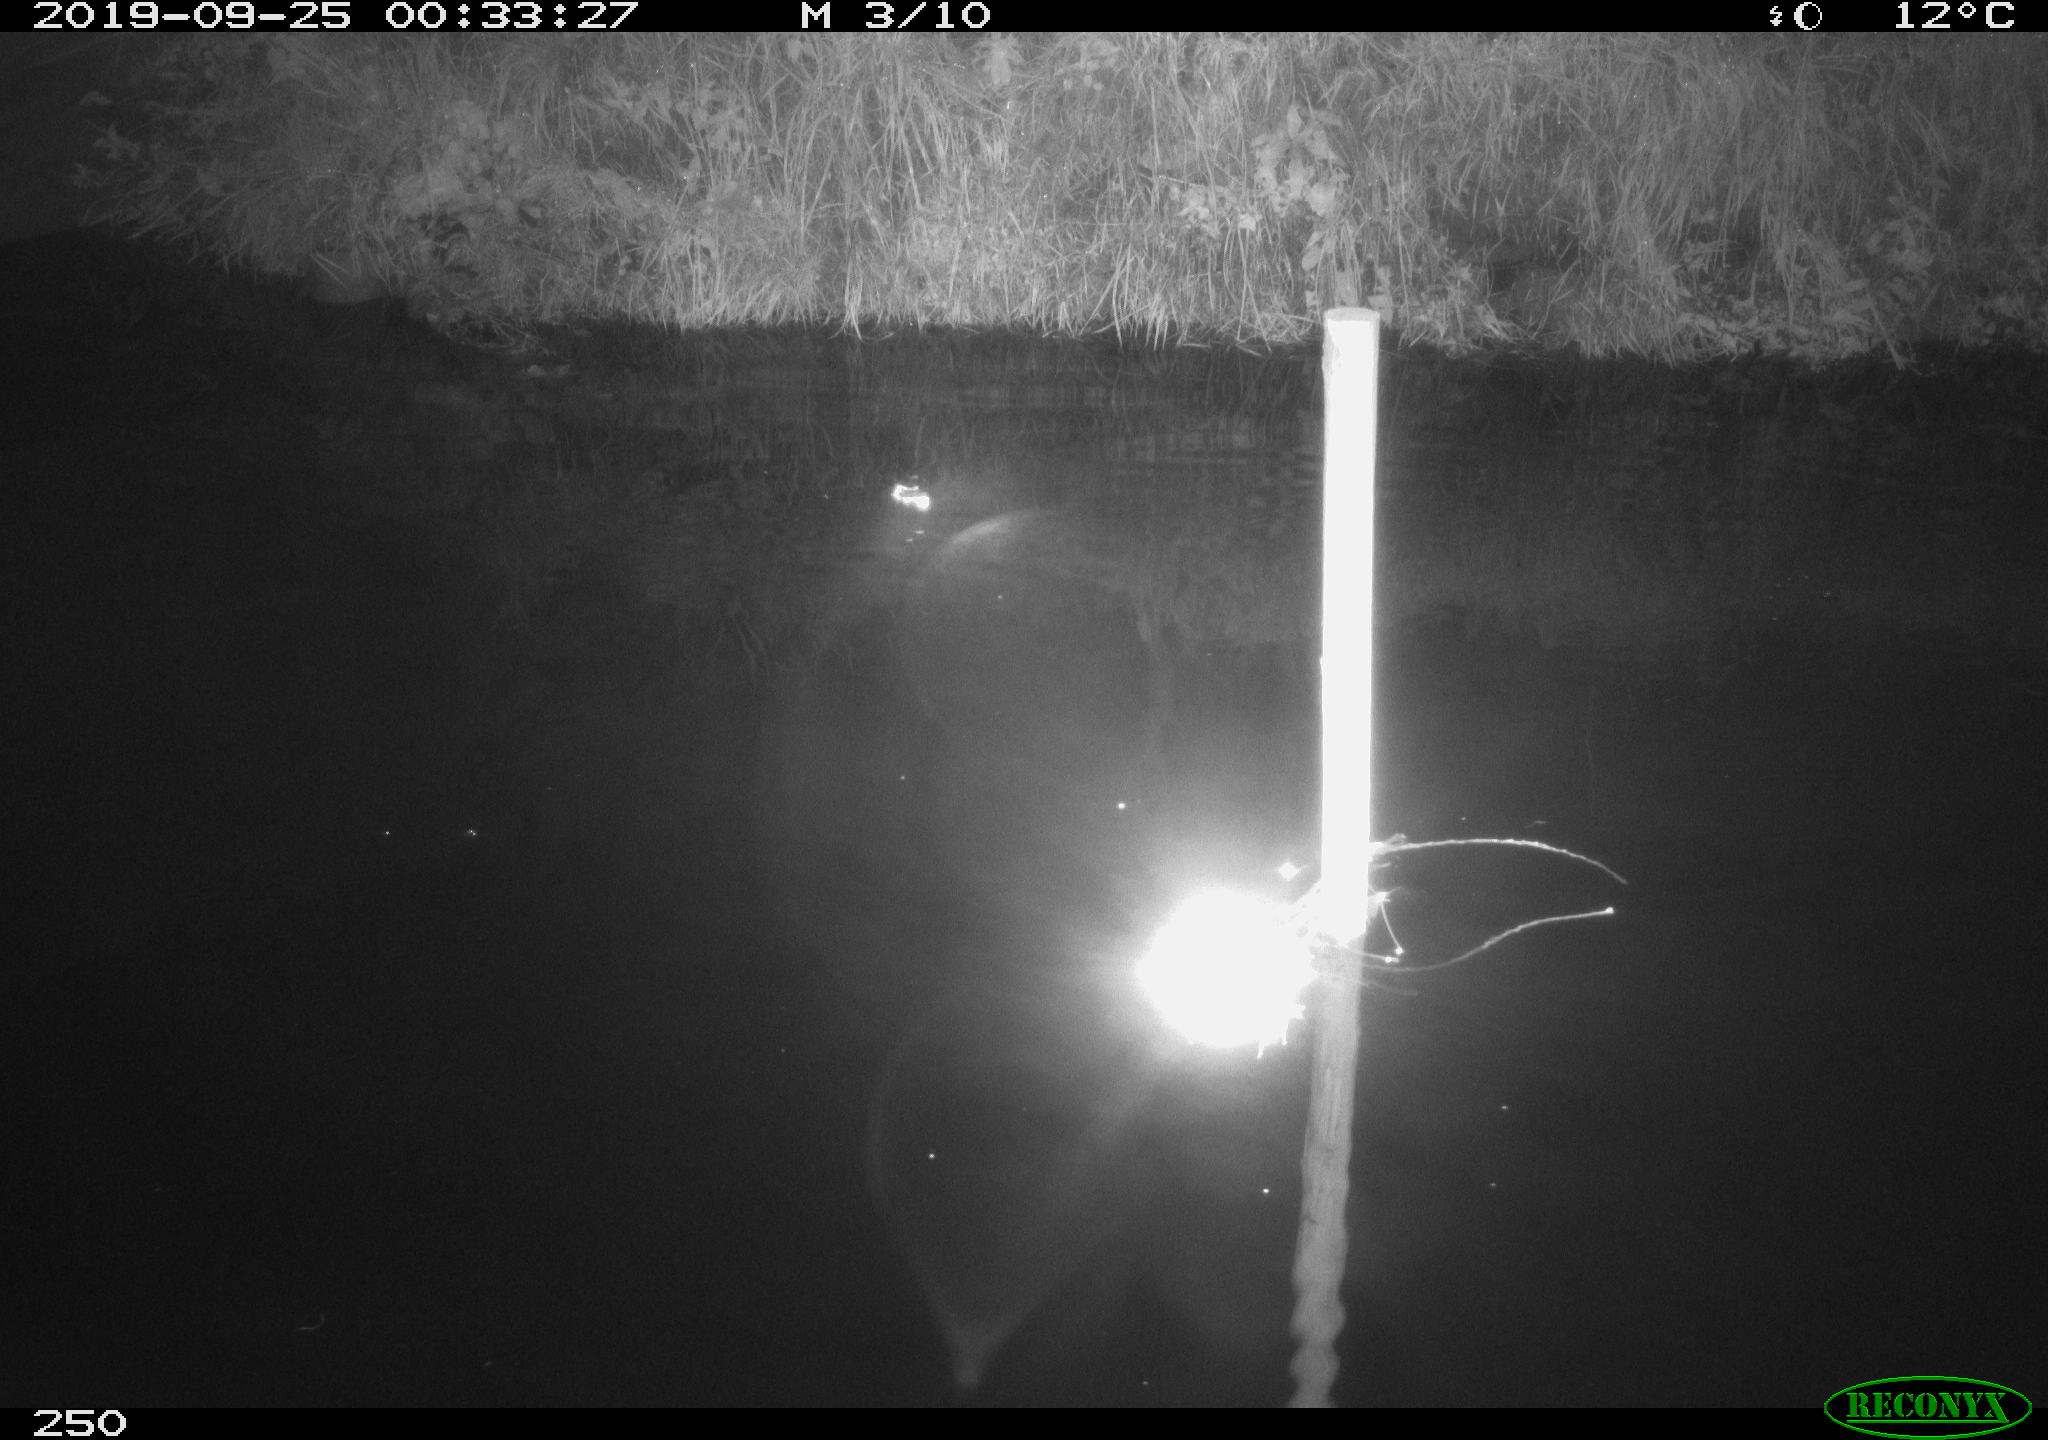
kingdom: Animalia
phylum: Chordata
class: Aves
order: Anseriformes
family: Anatidae
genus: Anas
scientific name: Anas platyrhynchos
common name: Mallard
